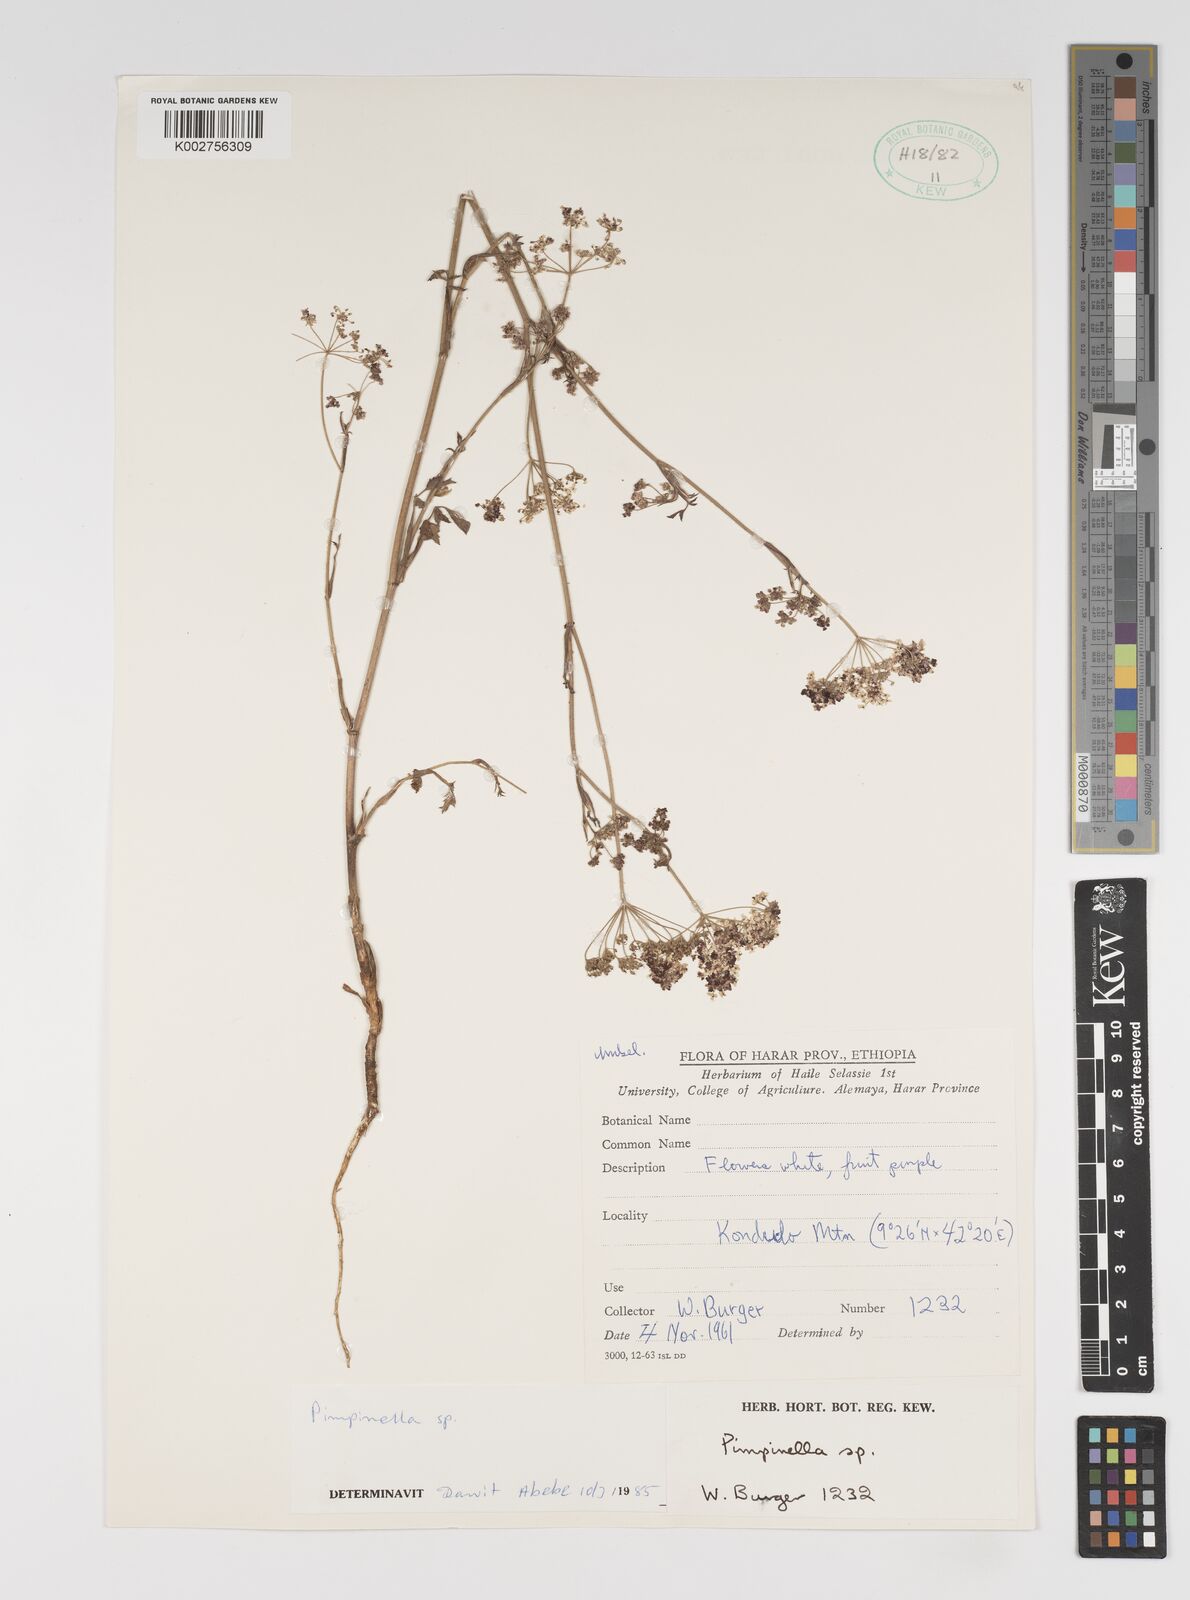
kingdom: Plantae
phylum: Tracheophyta
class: Magnoliopsida
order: Apiales
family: Apiaceae
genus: Pimpinella
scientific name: Pimpinella peregrina
